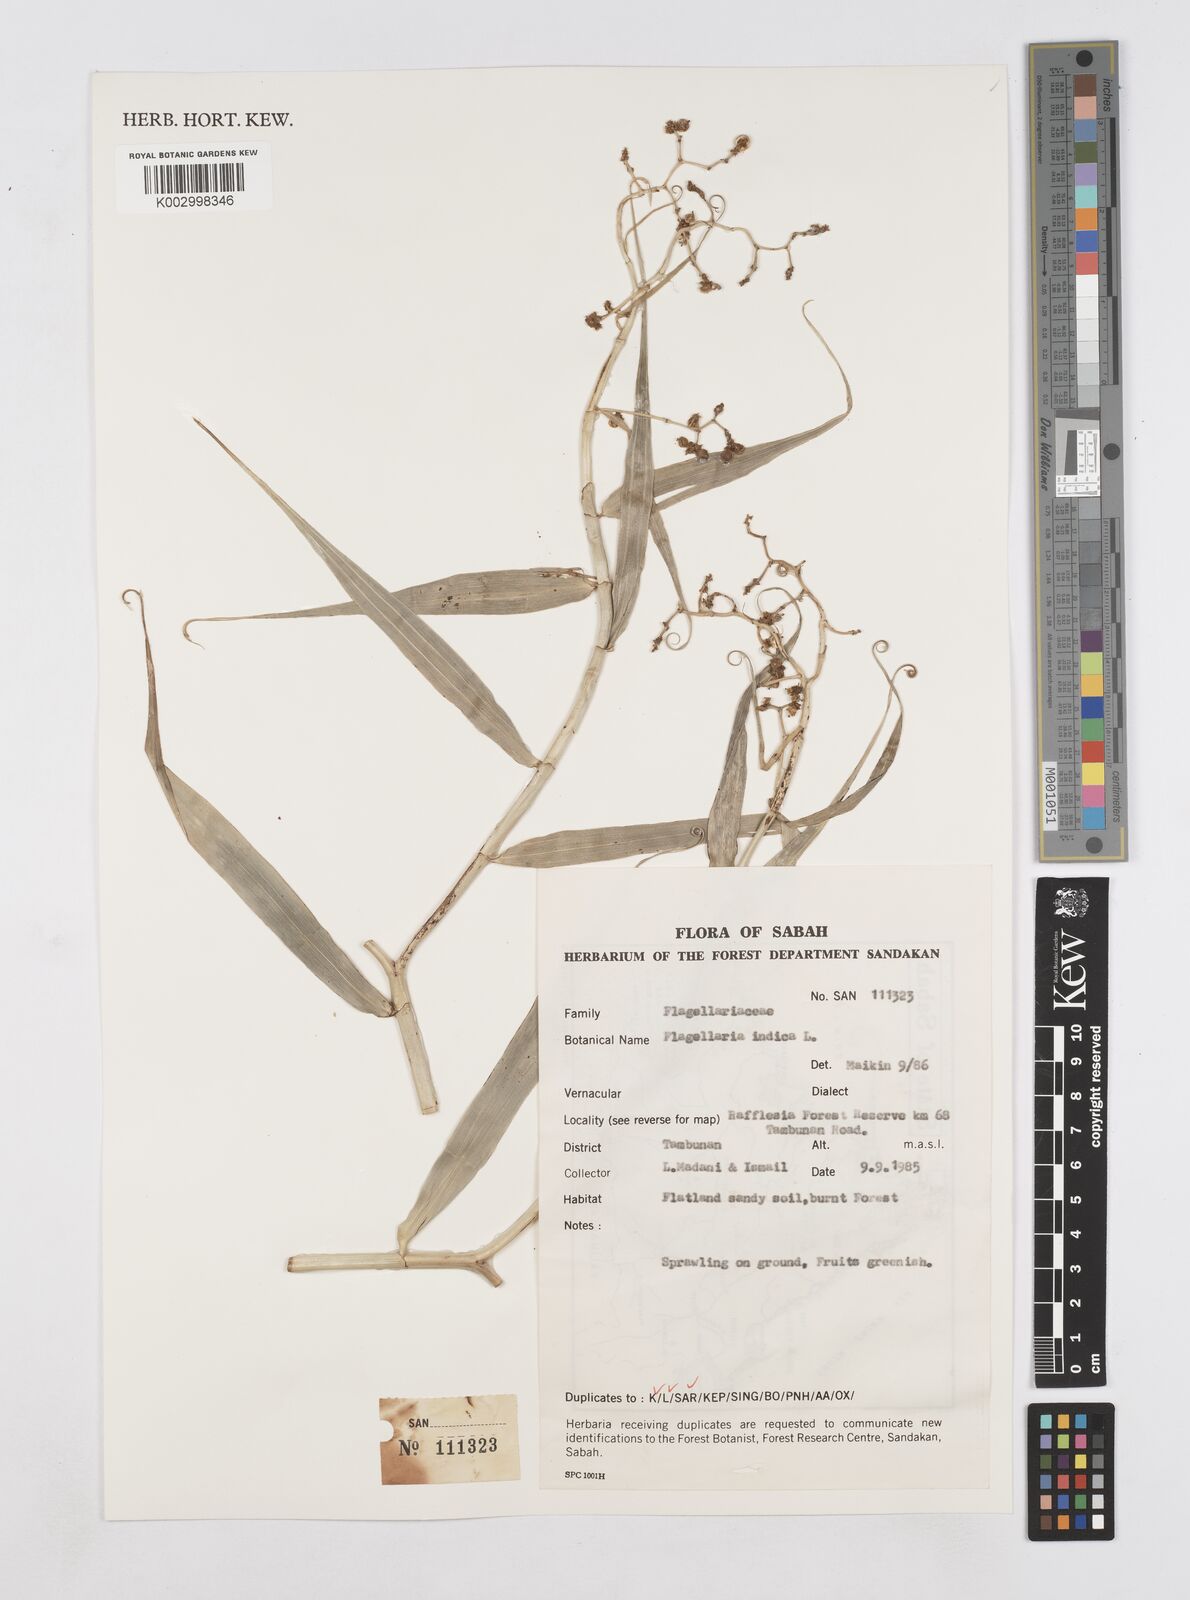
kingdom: Plantae
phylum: Tracheophyta
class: Liliopsida
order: Poales
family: Flagellariaceae
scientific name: Flagellariaceae
